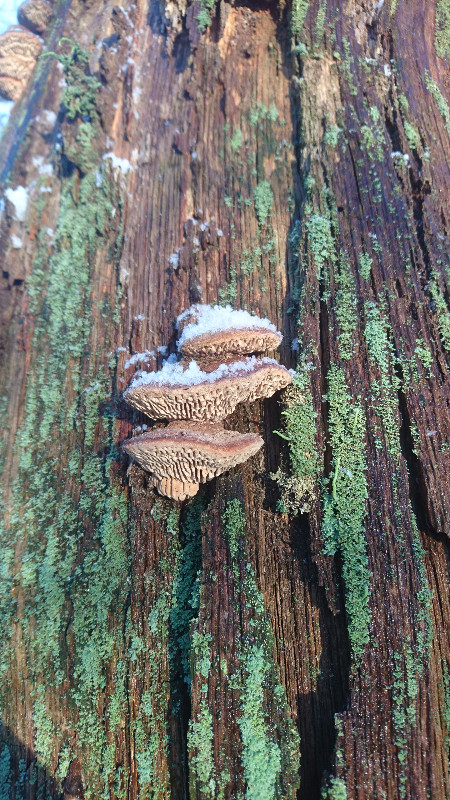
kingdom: Fungi
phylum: Basidiomycota
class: Agaricomycetes
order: Polyporales
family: Fomitopsidaceae
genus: Daedalea
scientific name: Daedalea quercina
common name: ege-labyrintsvamp
